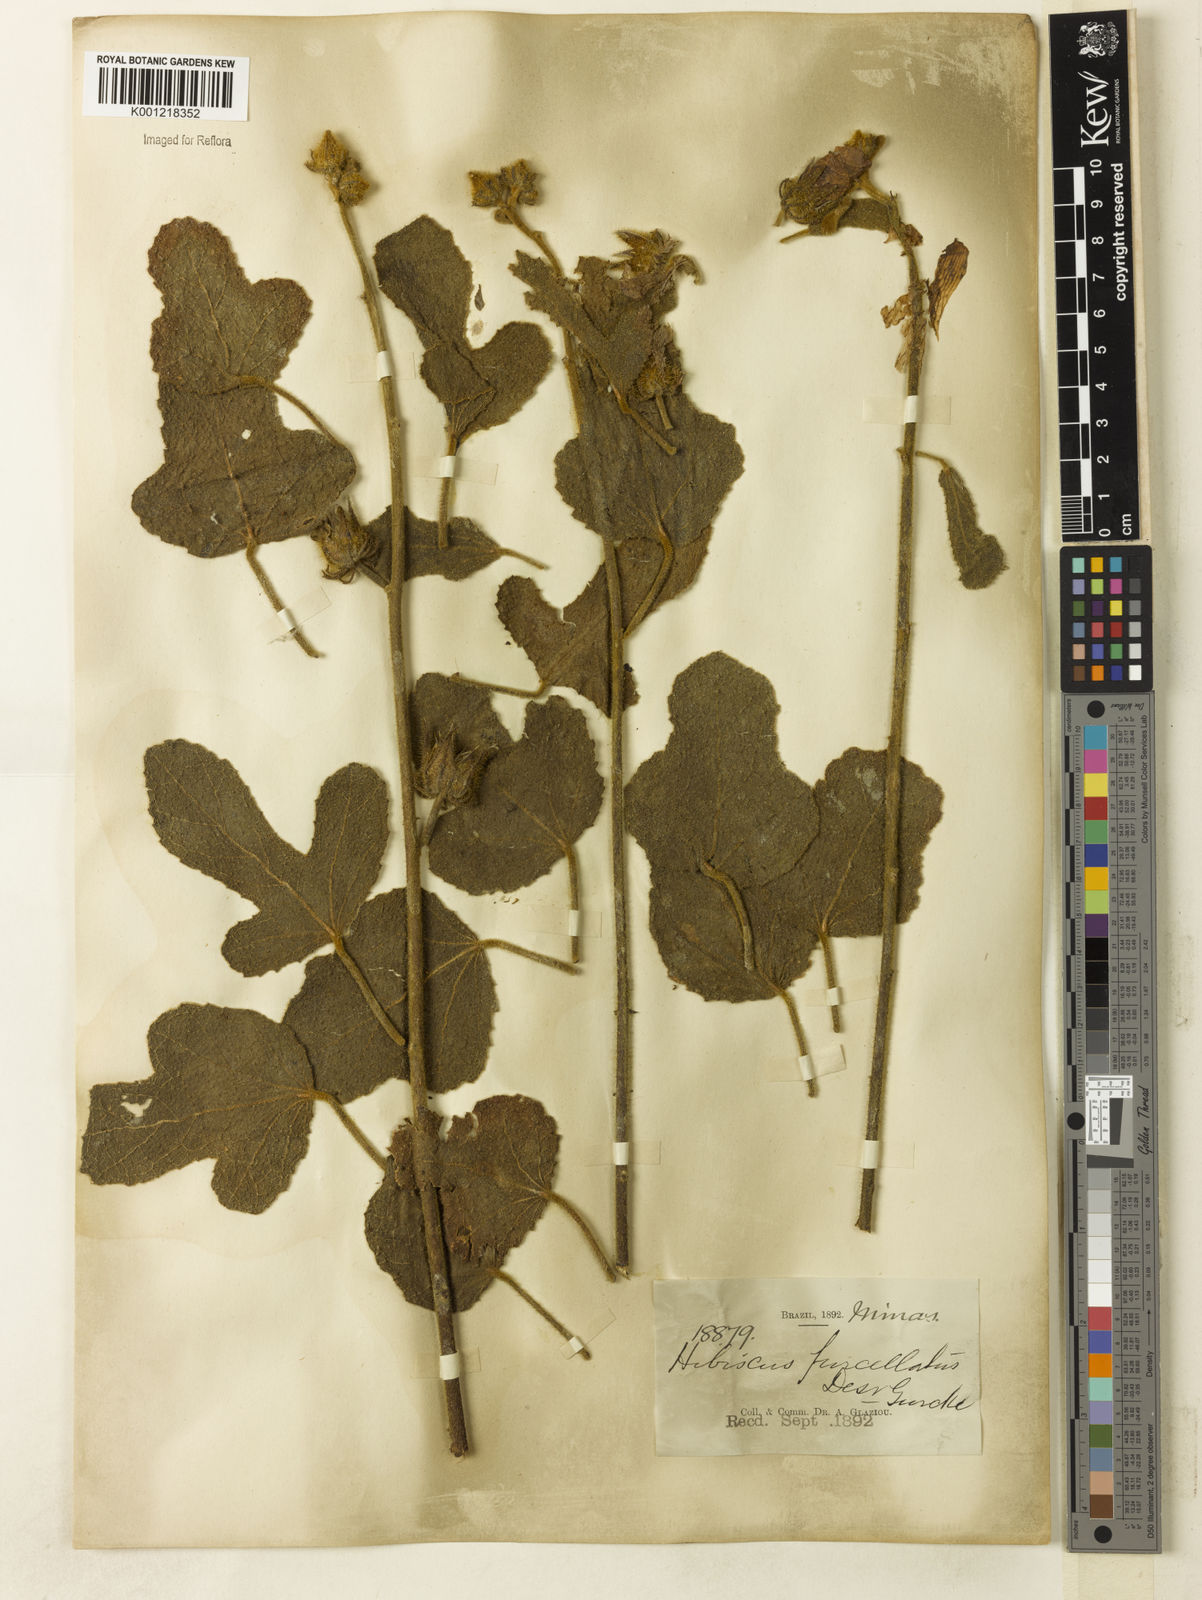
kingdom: Plantae
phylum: Tracheophyta
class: Magnoliopsida
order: Malvales
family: Malvaceae
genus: Hibiscus
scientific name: Hibiscus furcellatus
